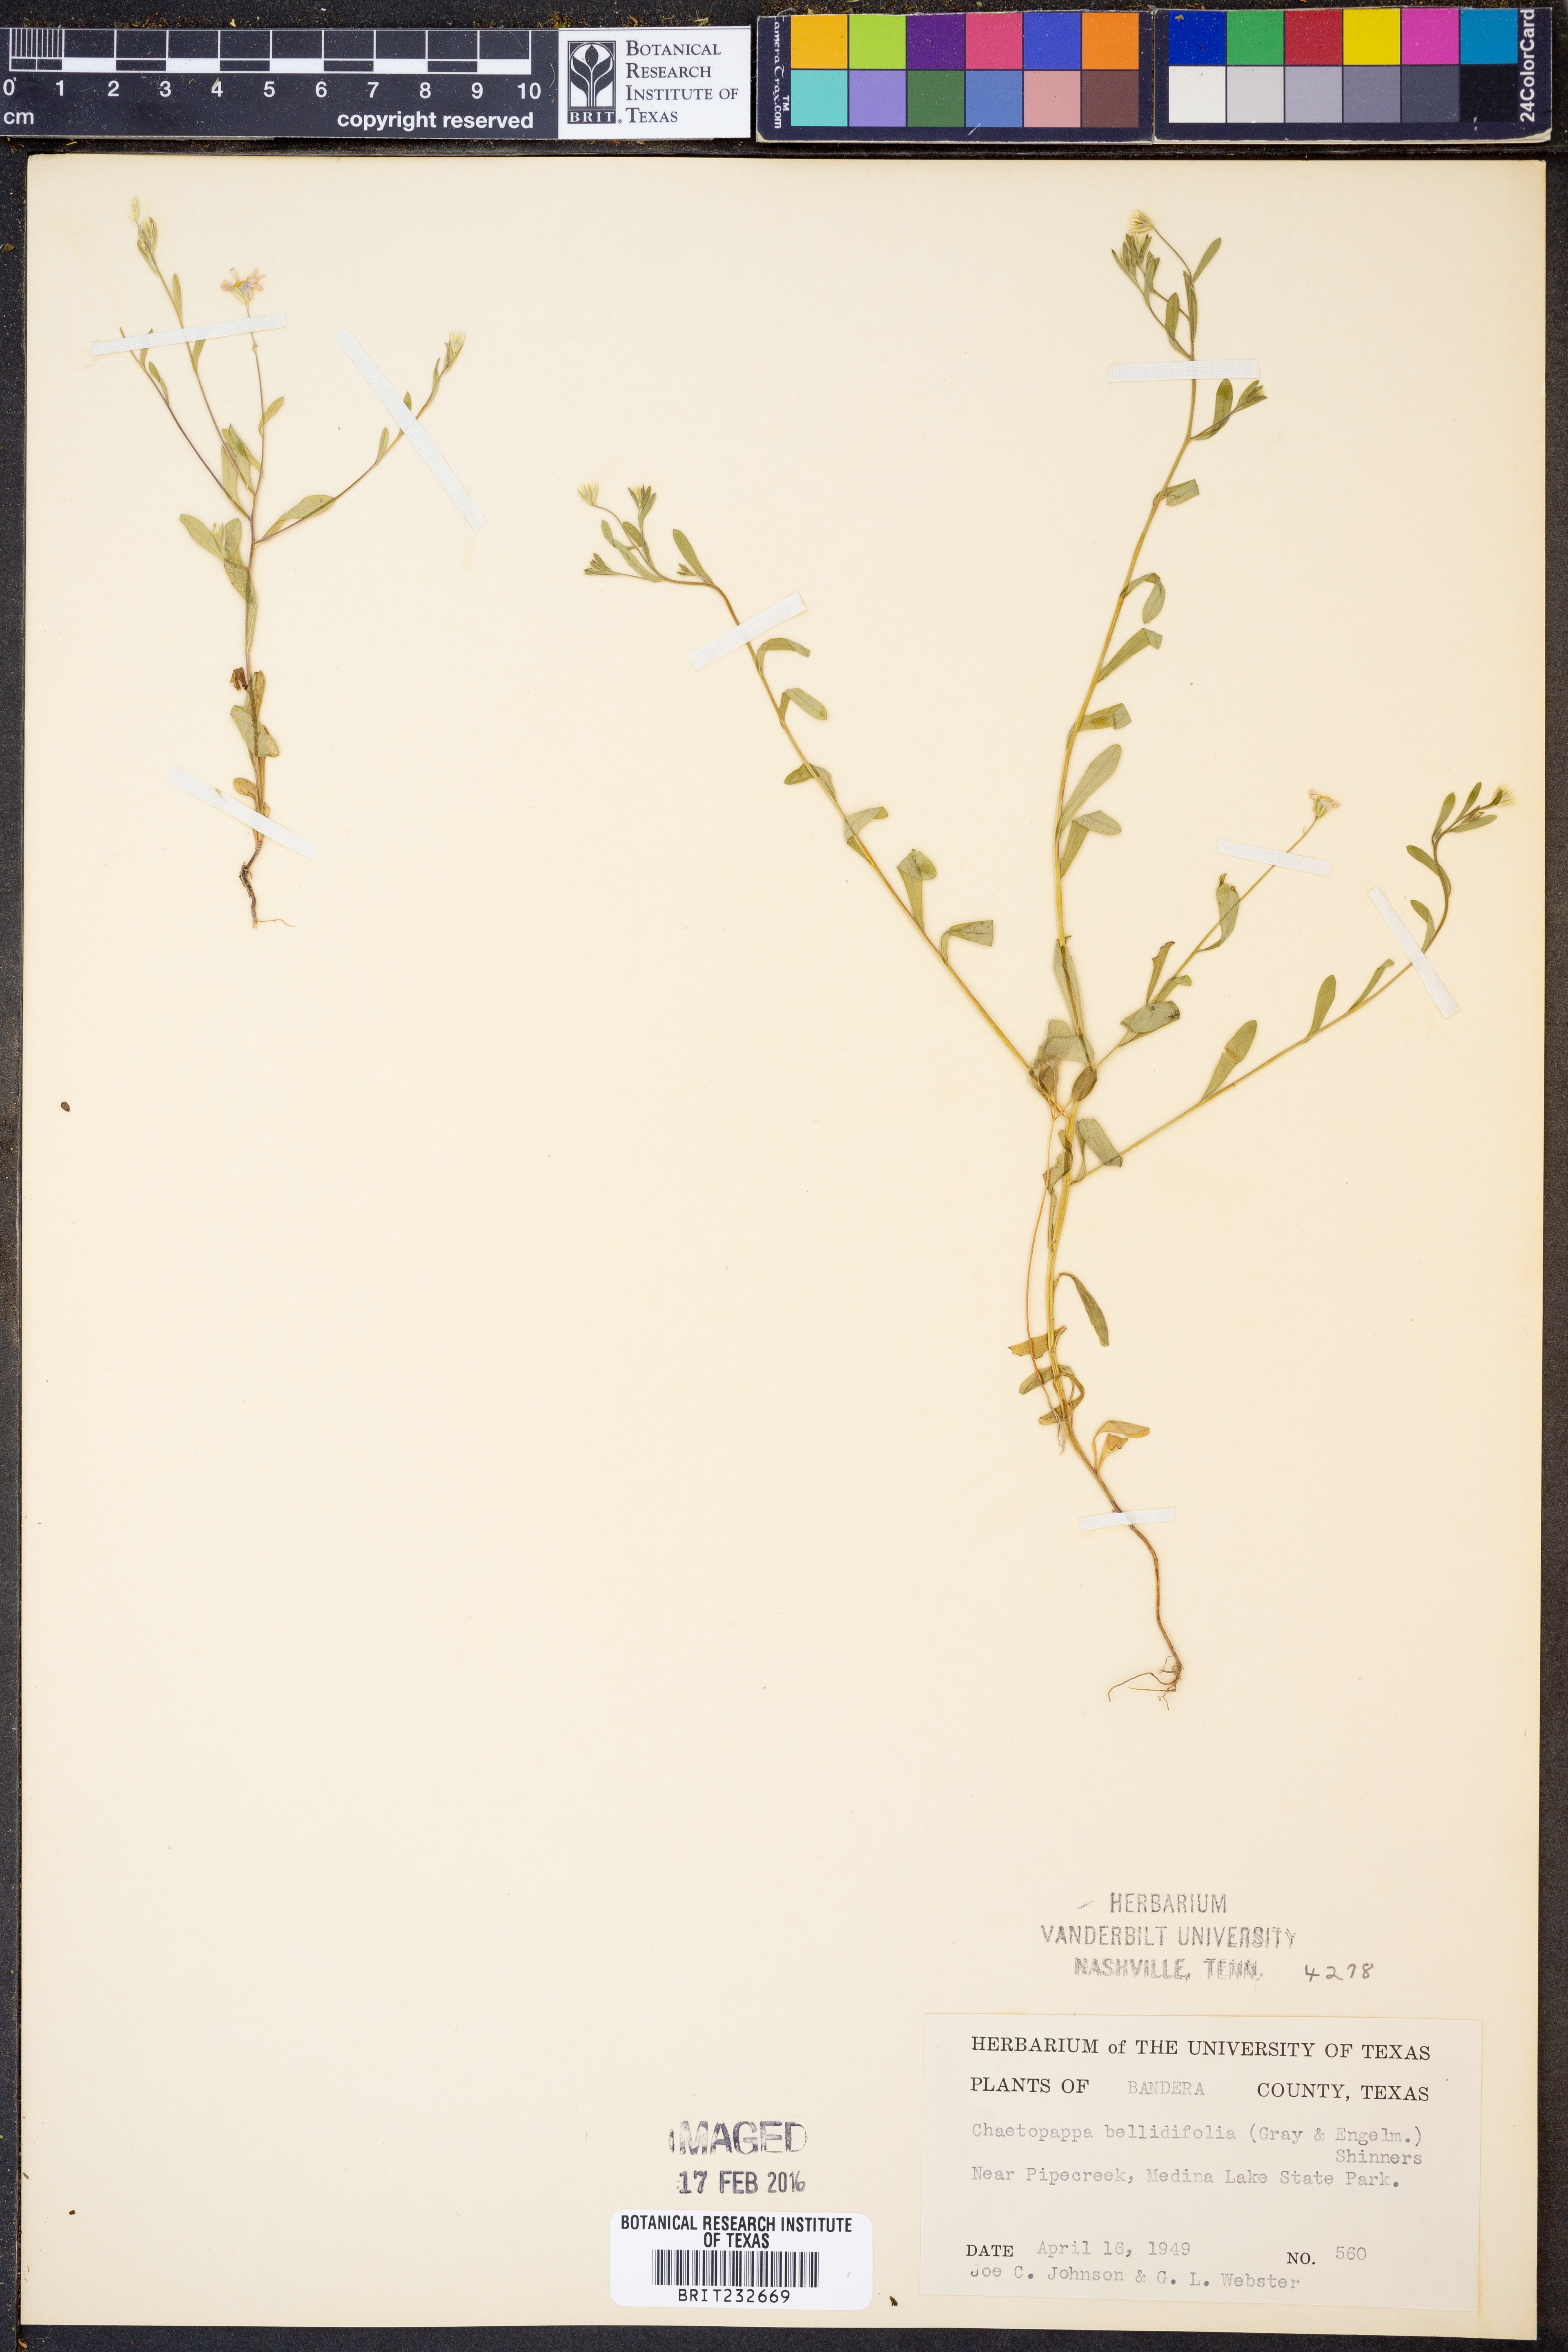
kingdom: Plantae
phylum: Tracheophyta
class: Magnoliopsida
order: Asterales
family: Asteraceae
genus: Chaetopappa
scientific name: Chaetopappa bellidifolia
